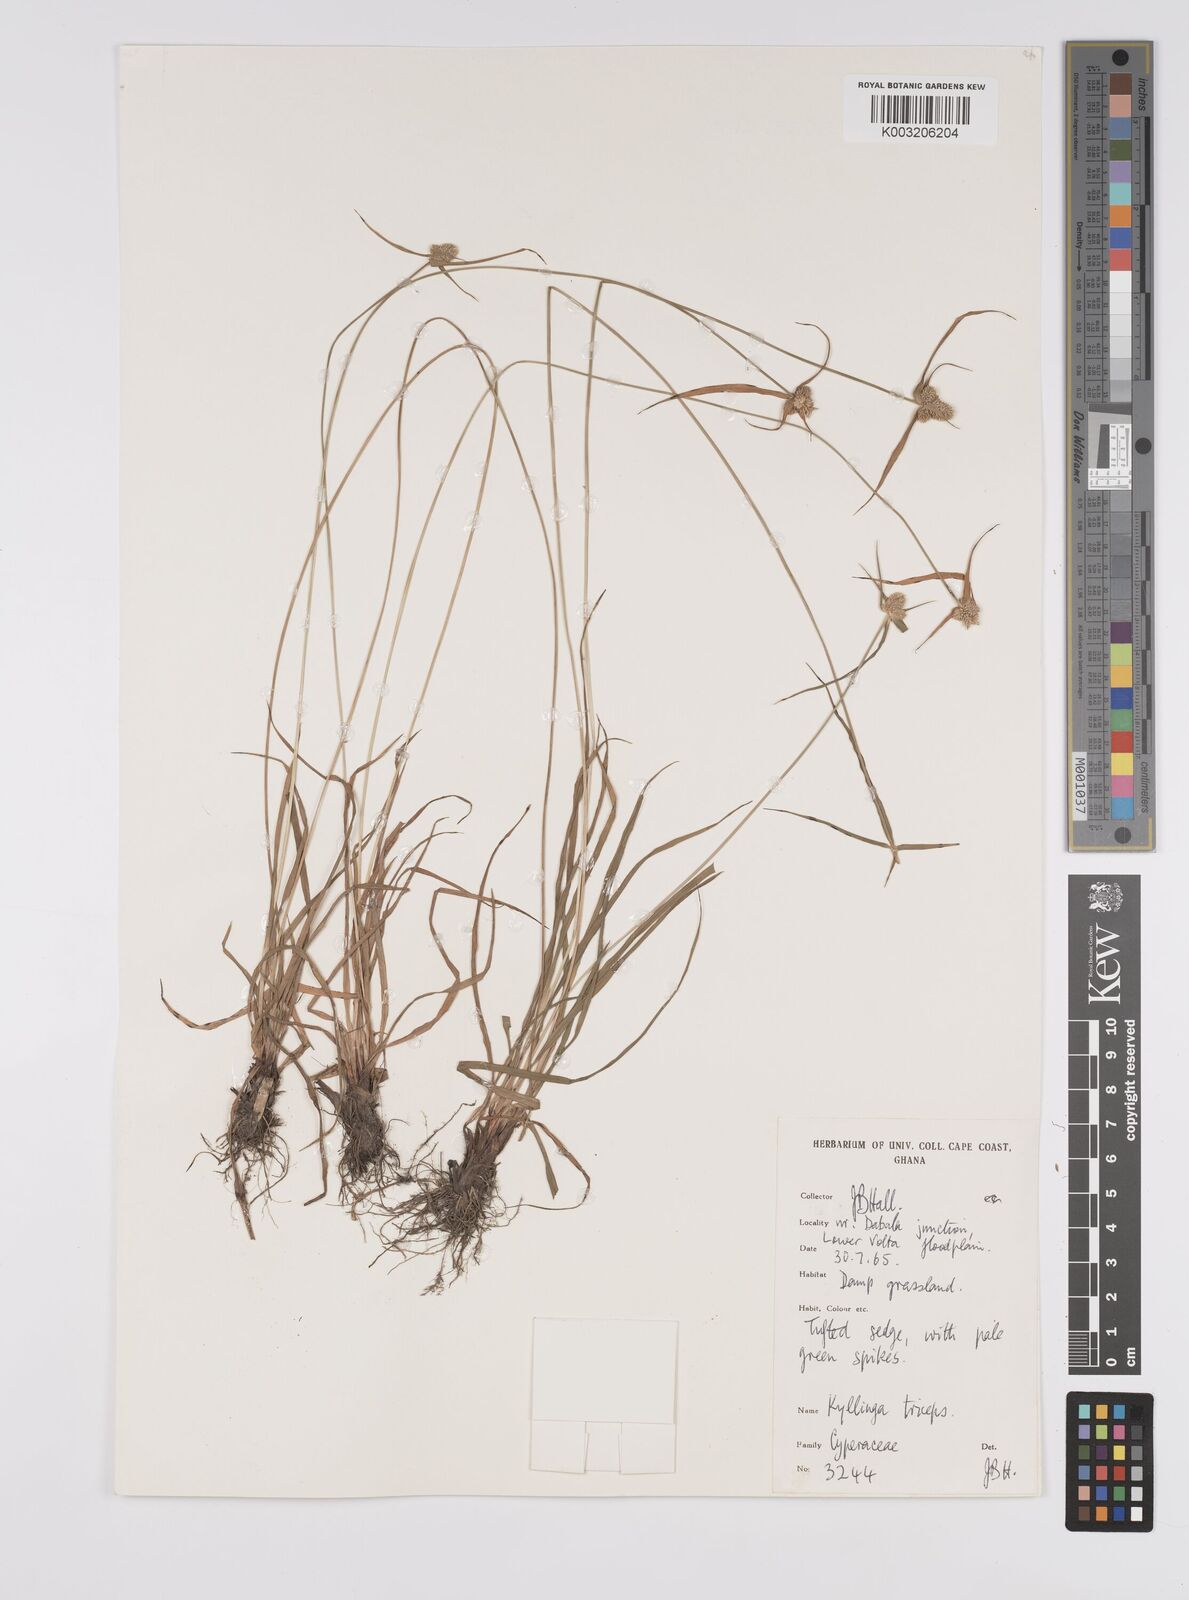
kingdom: Plantae
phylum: Tracheophyta
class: Liliopsida
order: Poales
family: Cyperaceae
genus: Cyperus
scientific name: Cyperus
